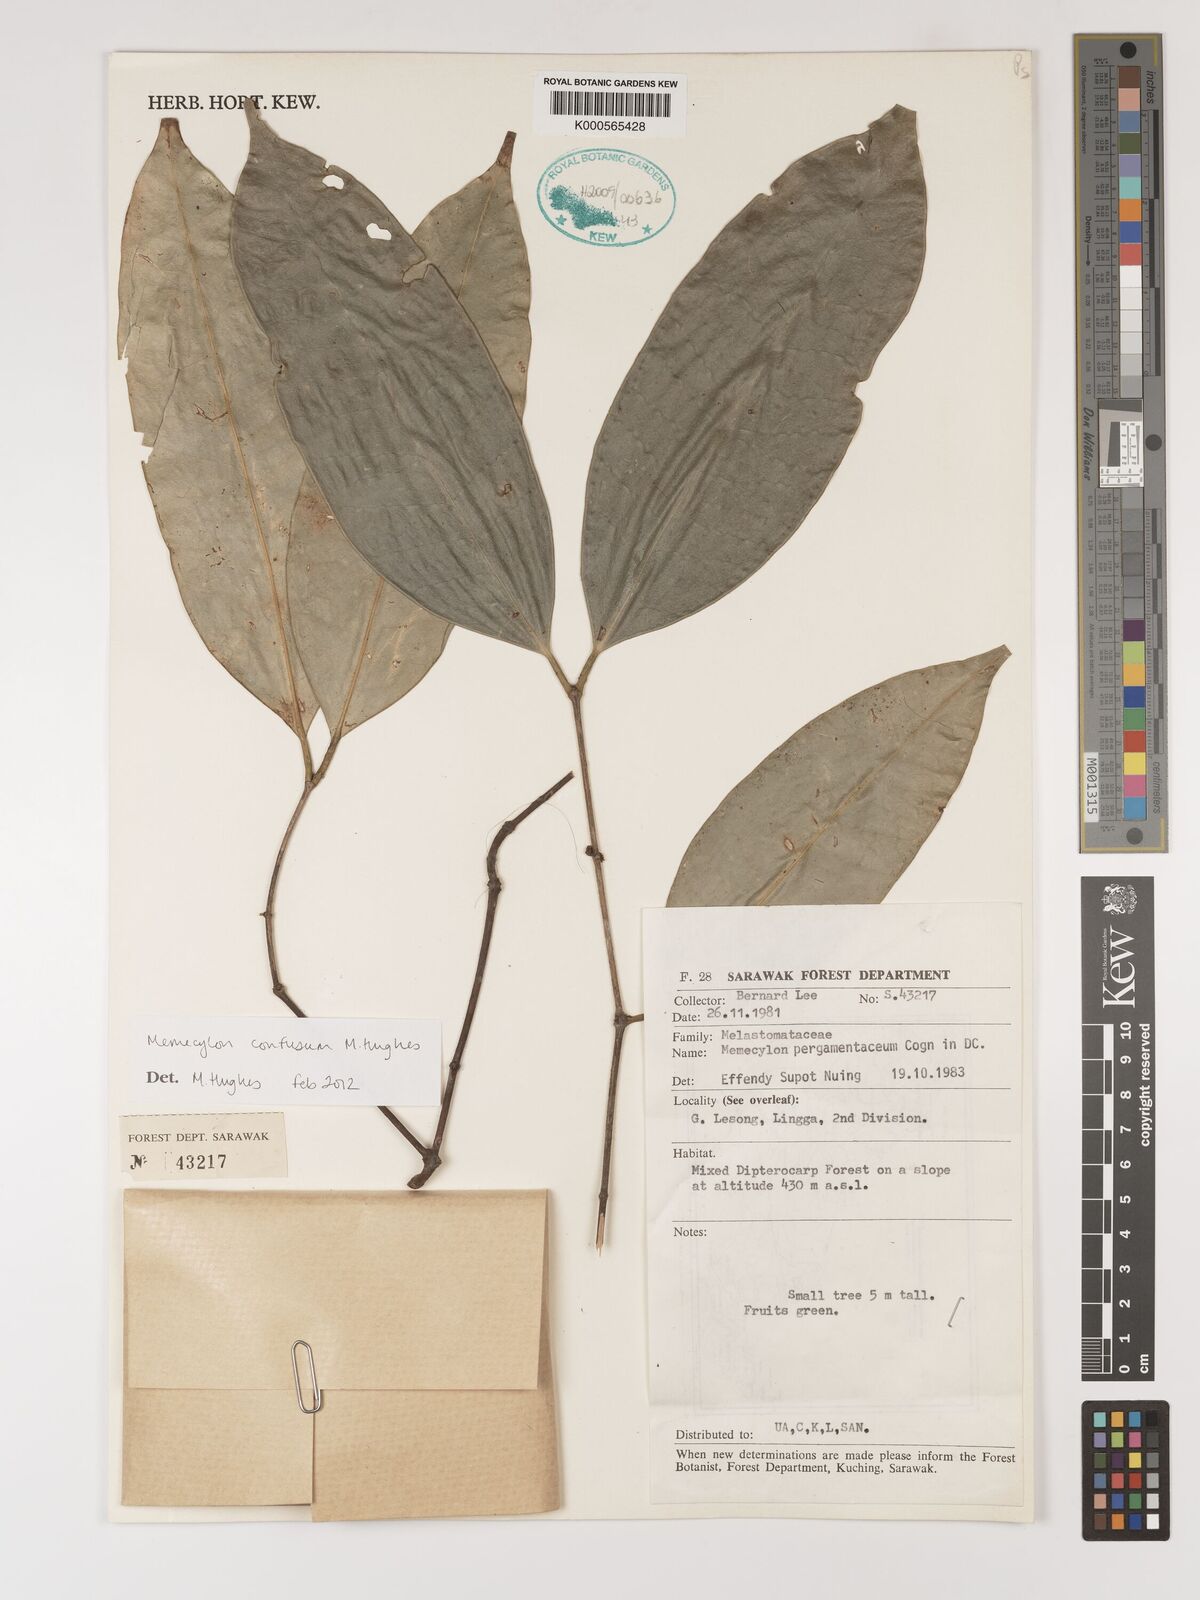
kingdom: Plantae
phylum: Tracheophyta
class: Magnoliopsida
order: Myrtales
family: Melastomataceae
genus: Memecylon
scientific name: Memecylon confusum
